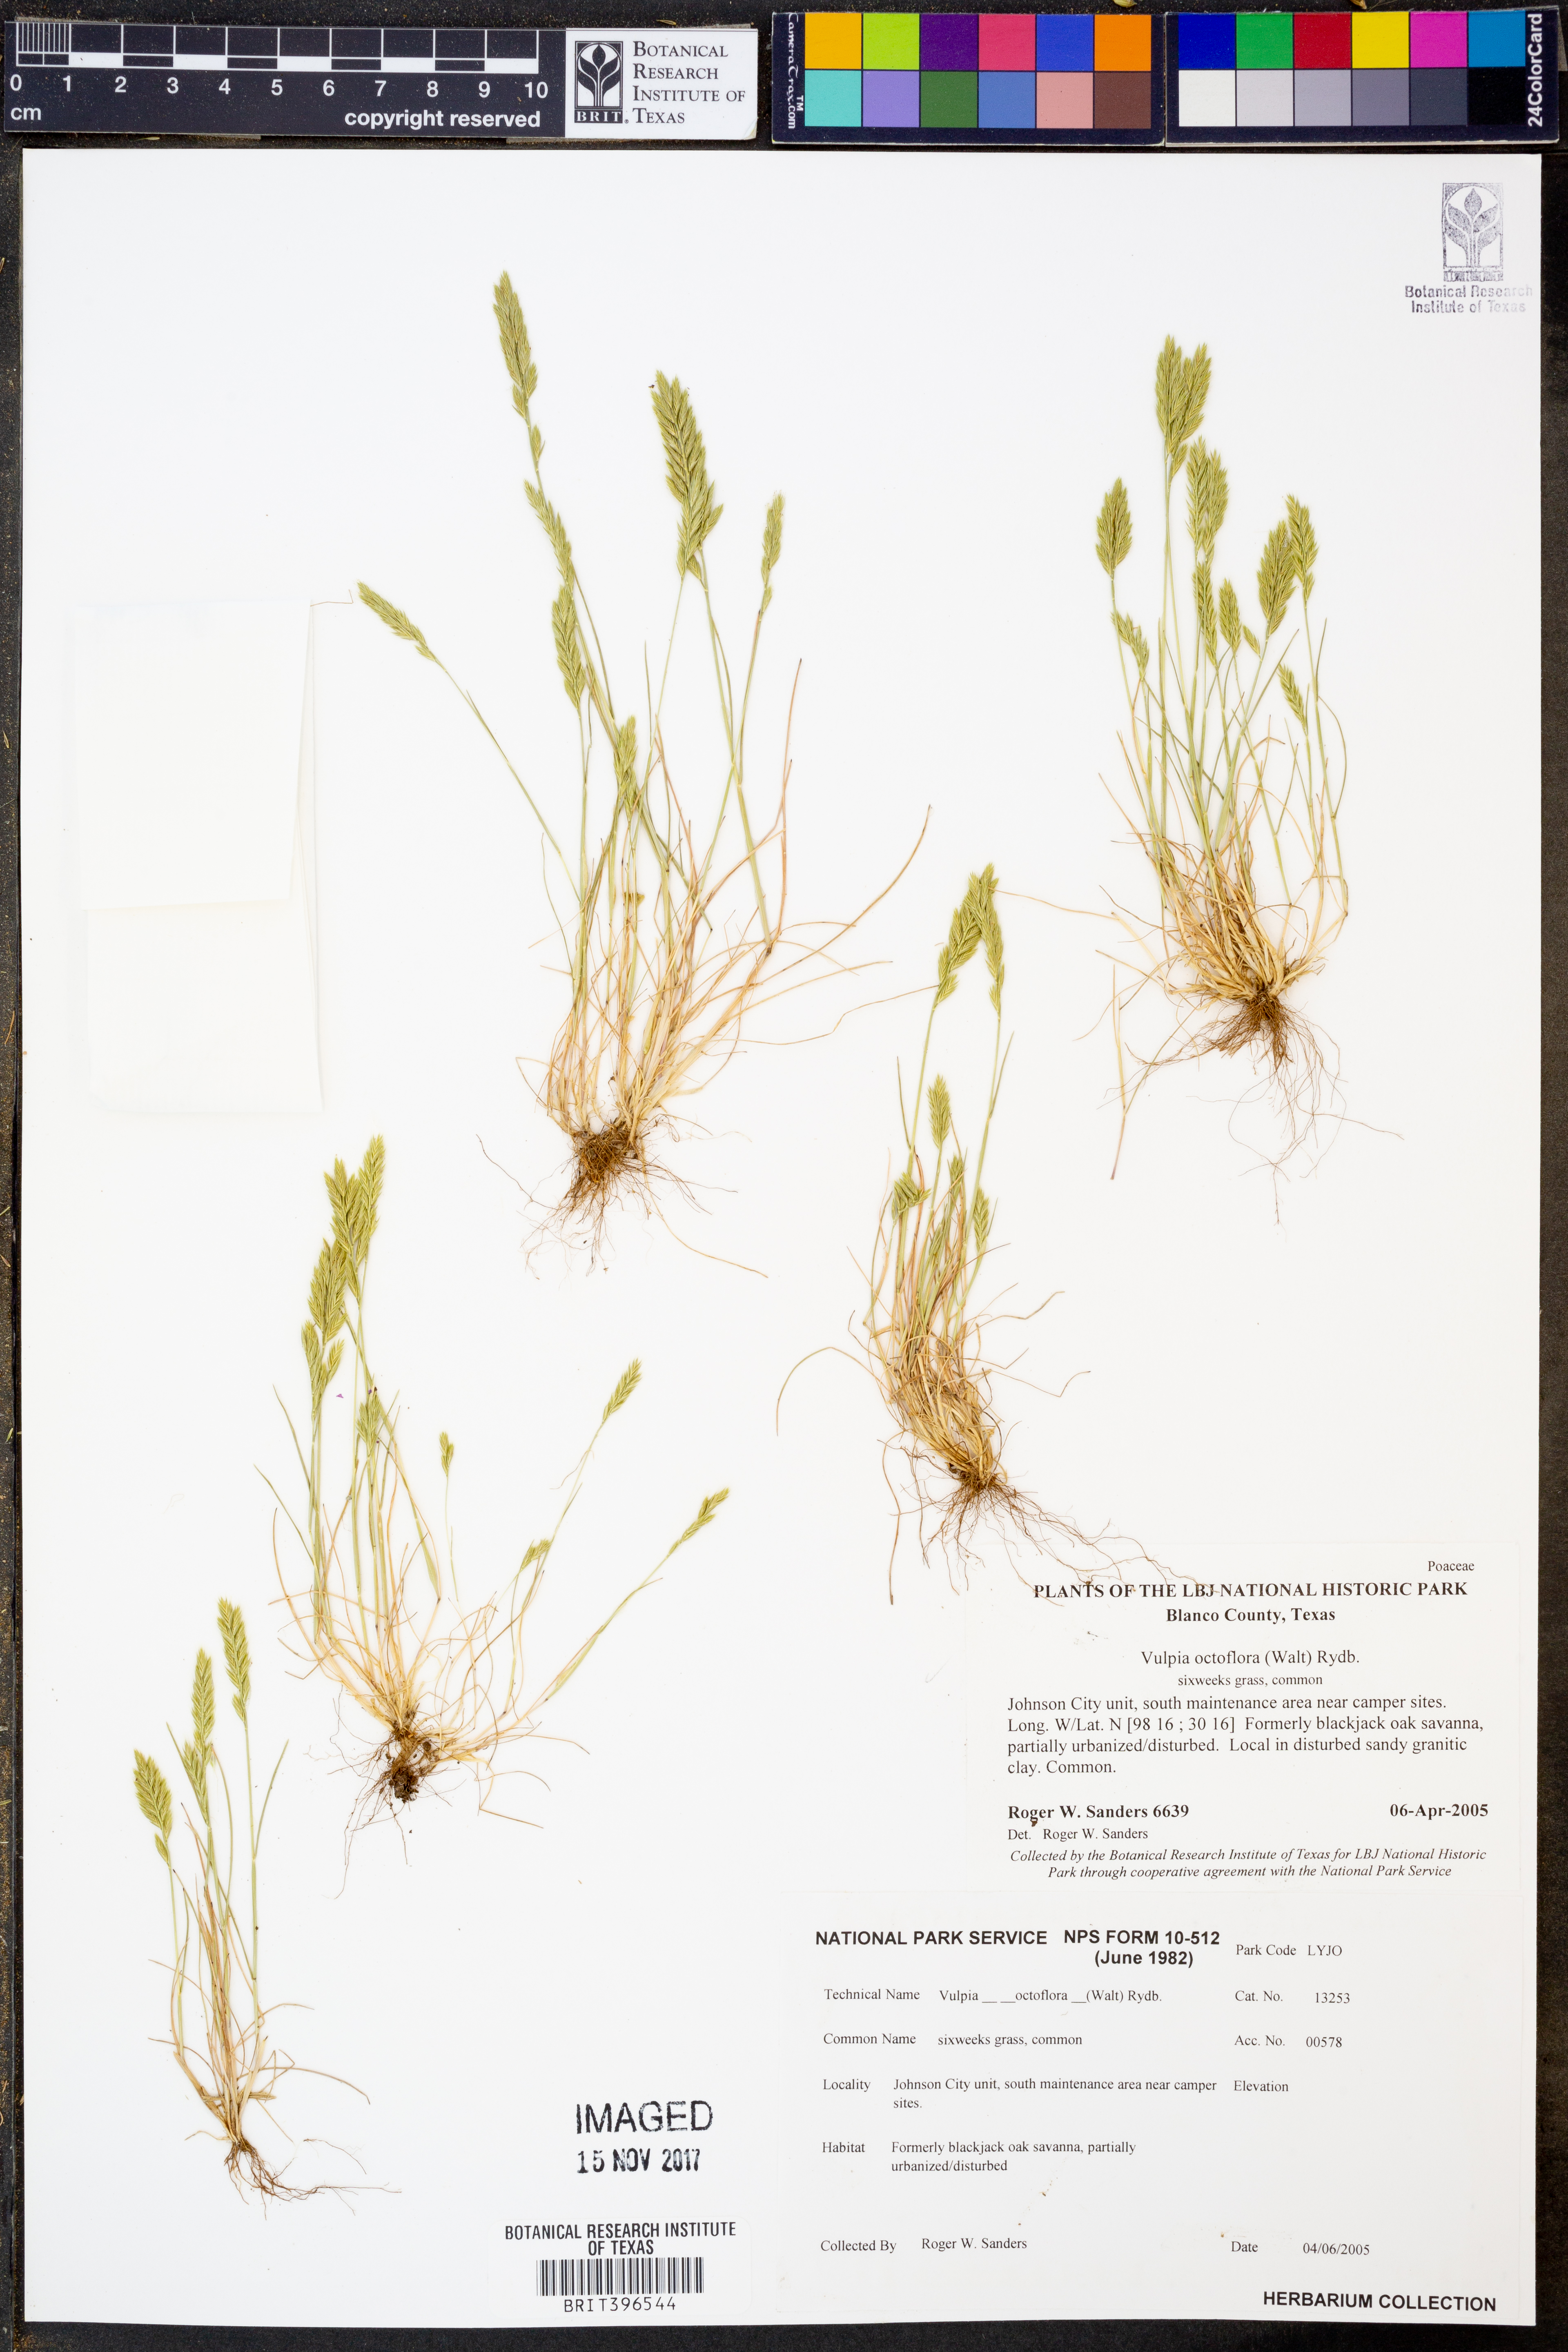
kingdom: Plantae
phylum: Tracheophyta
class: Liliopsida
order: Poales
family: Poaceae
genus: Festuca
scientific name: Festuca octoflora
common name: Sixweeks grass
